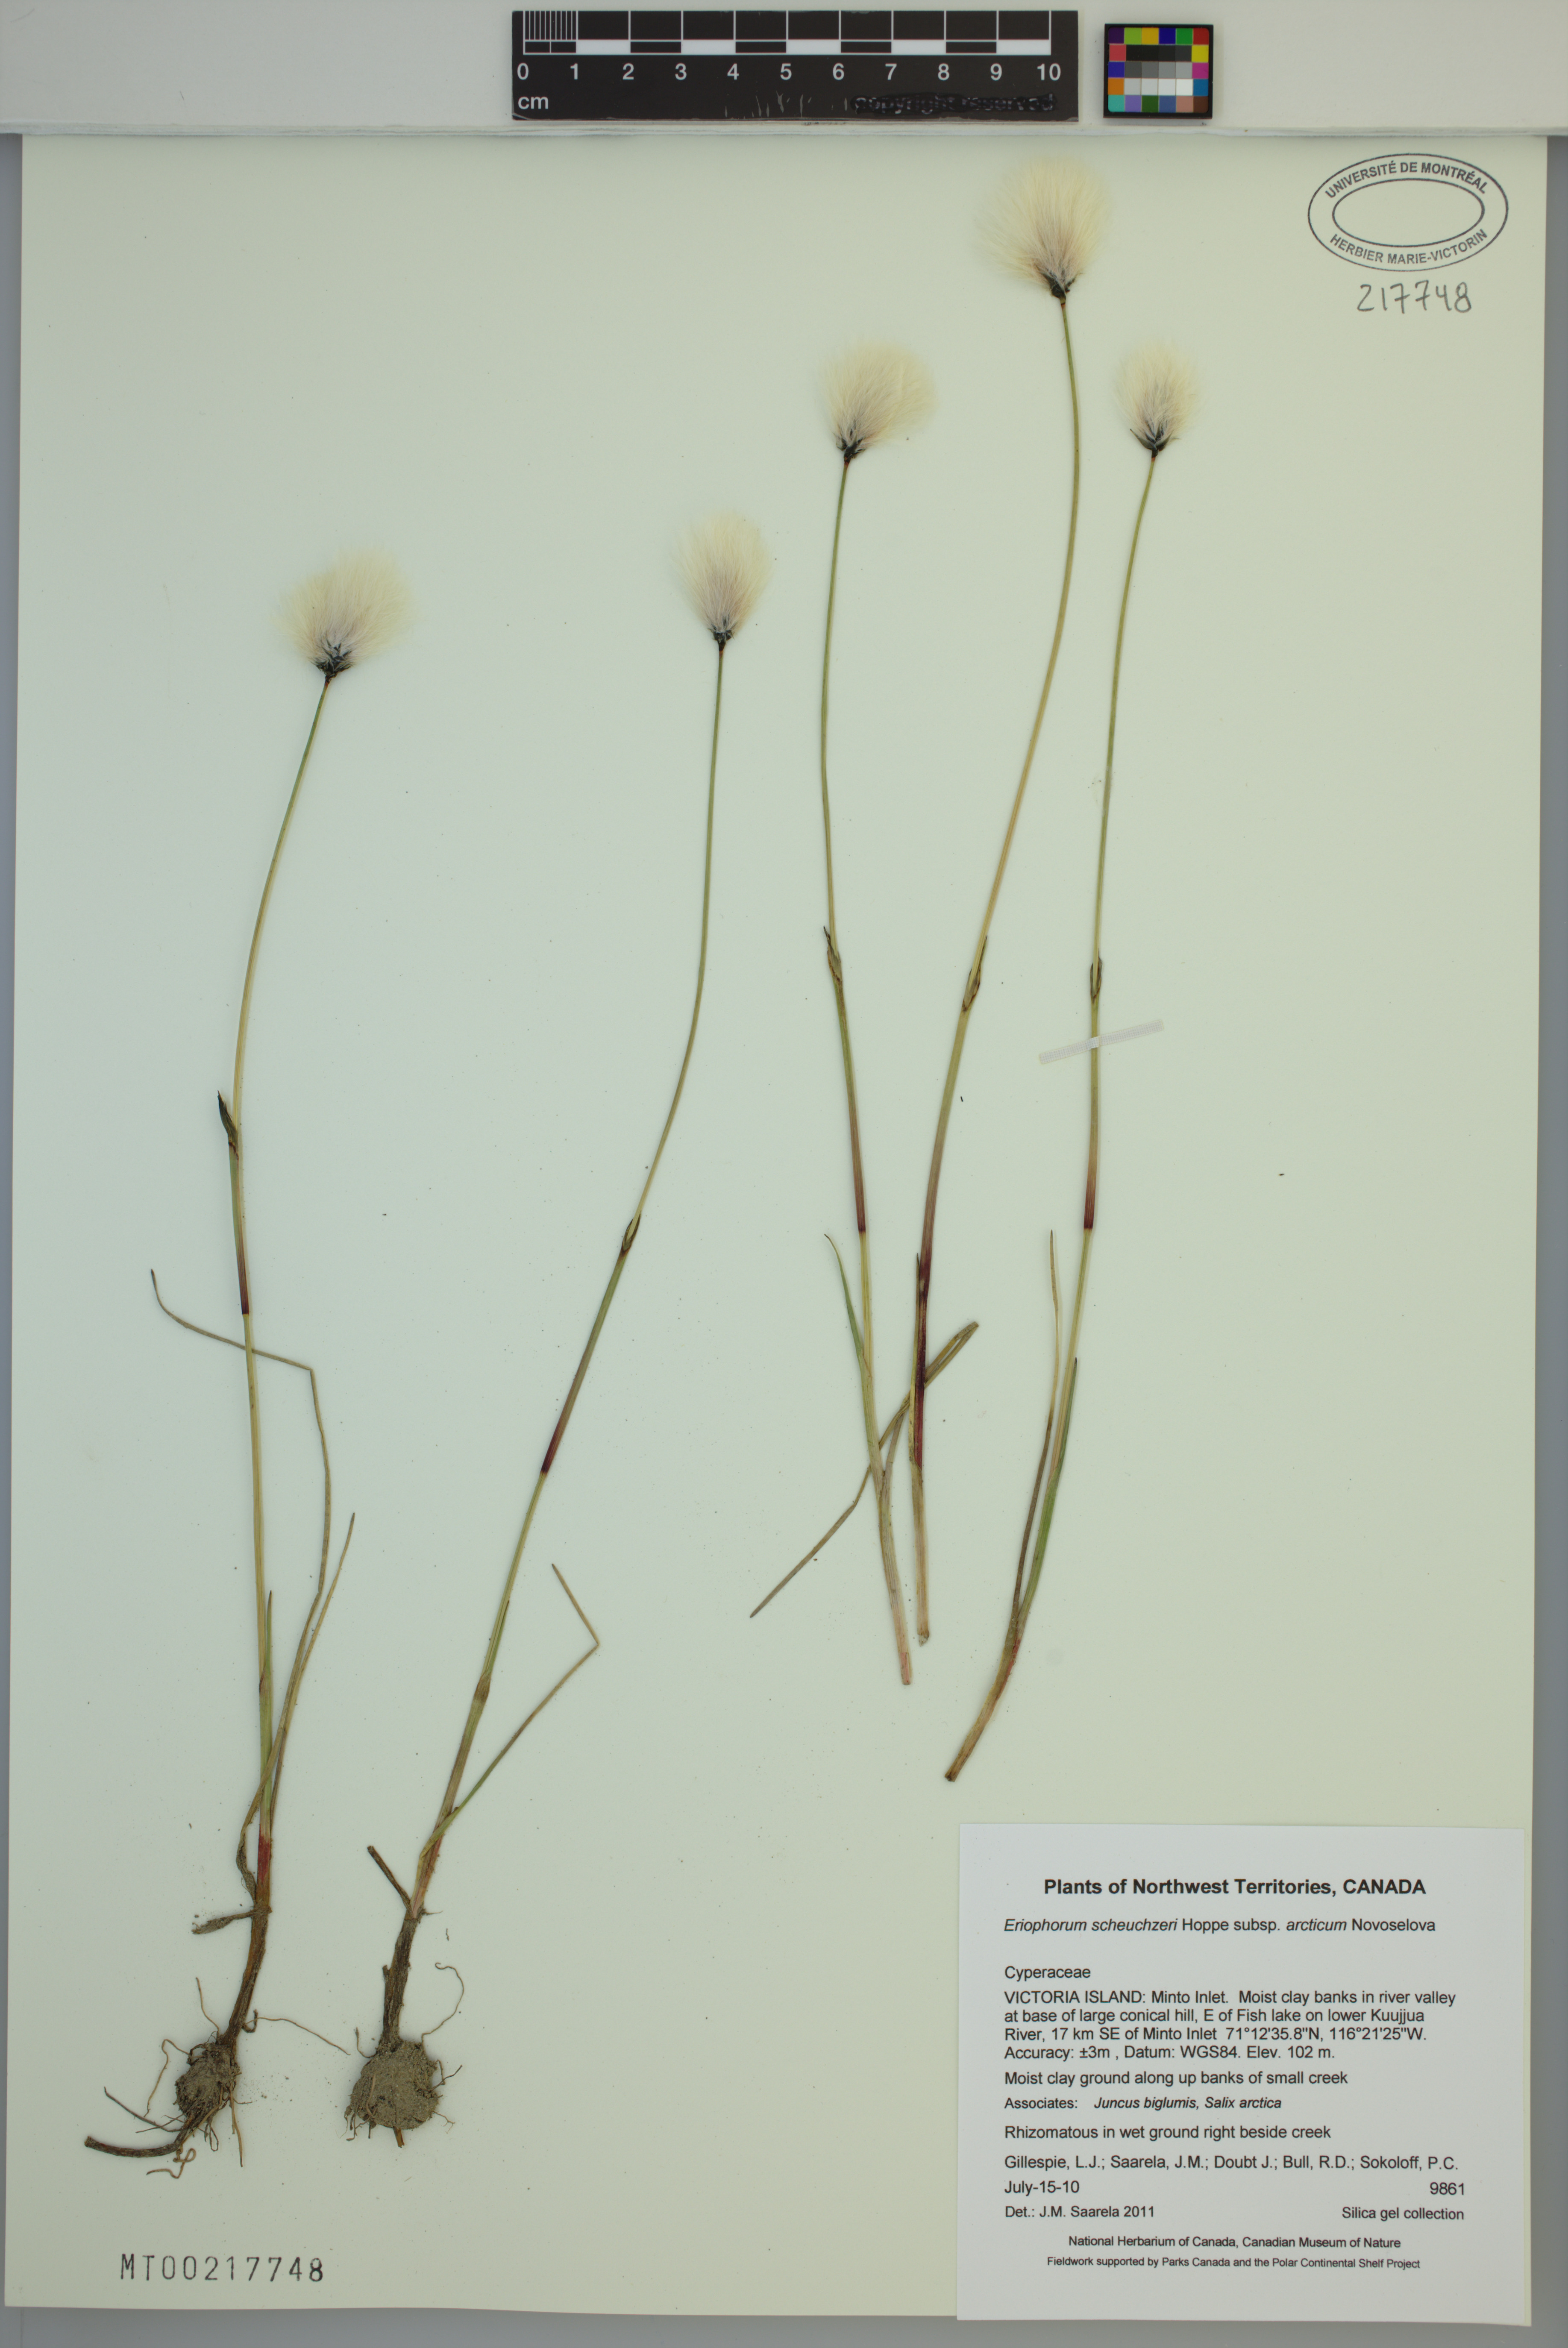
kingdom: Plantae
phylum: Tracheophyta
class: Liliopsida
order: Poales
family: Cyperaceae
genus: Eriophorum
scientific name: Eriophorum scheuchzeri
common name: Scheuchzer's cottongrass
